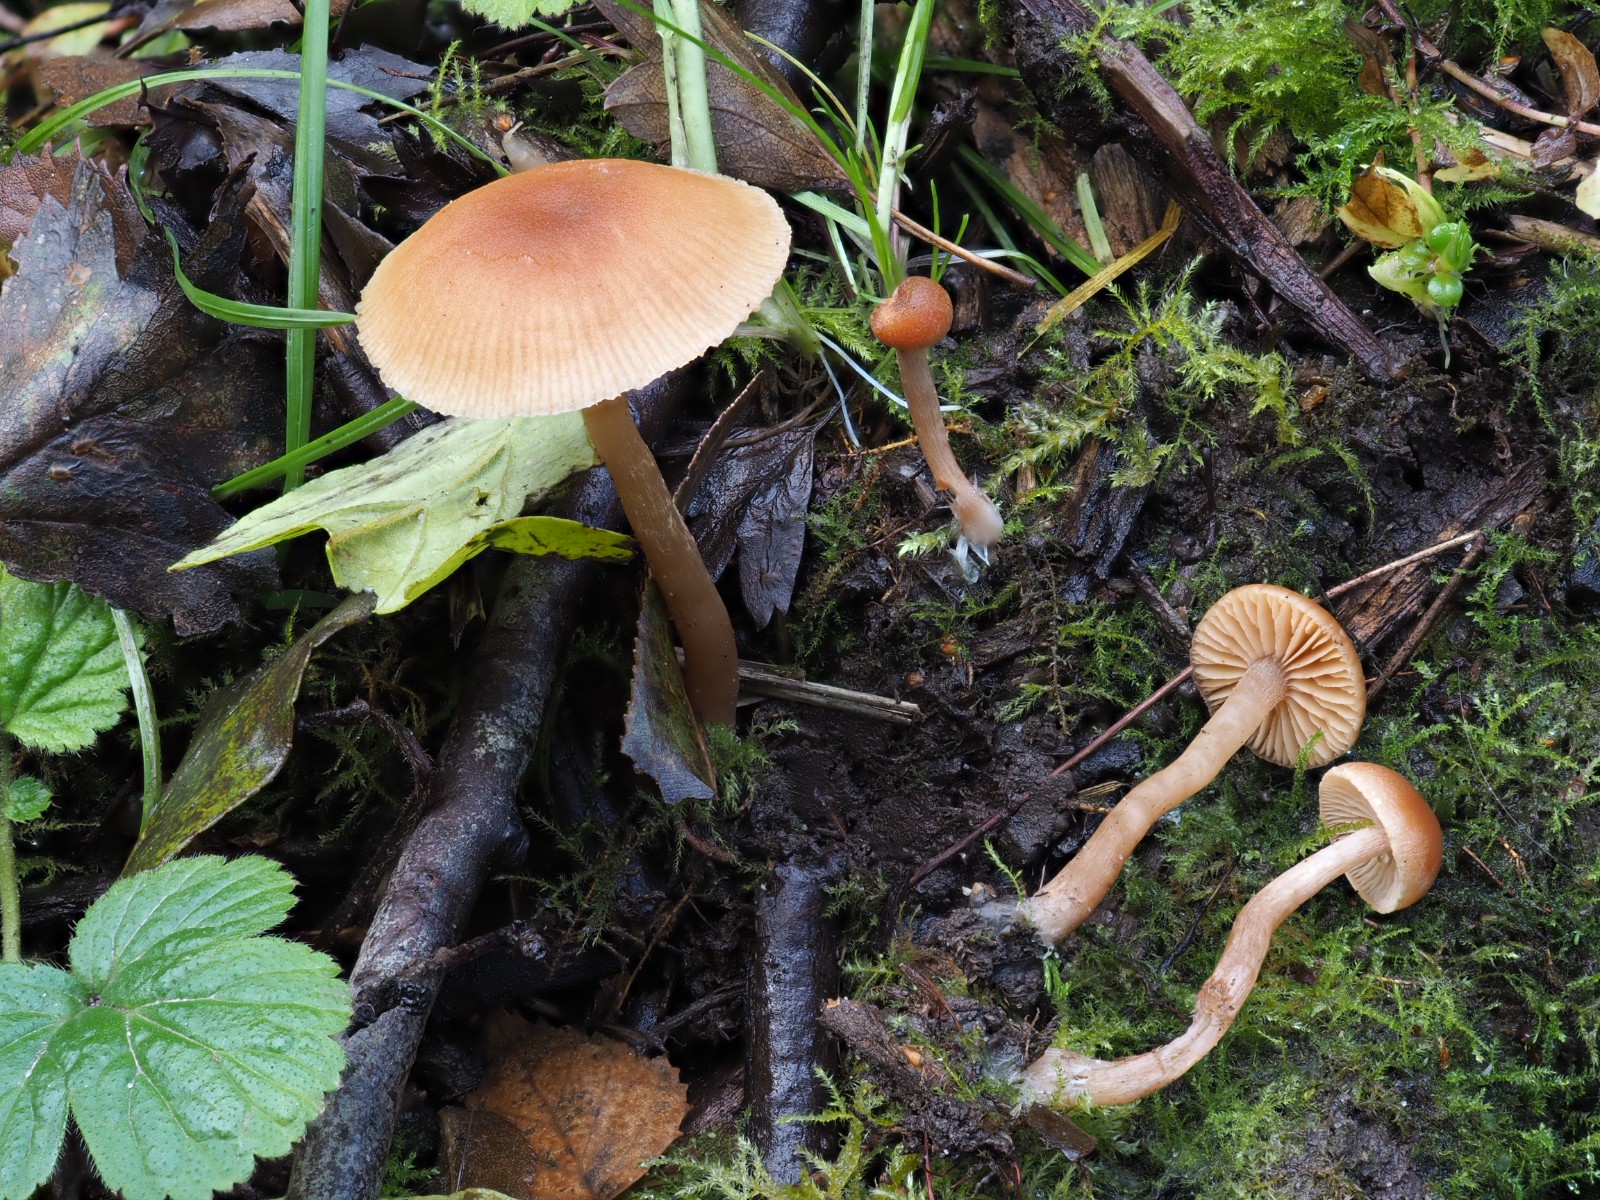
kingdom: Fungi
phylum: Basidiomycota
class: Agaricomycetes
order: Agaricales
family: Tubariaceae
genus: Tubaria
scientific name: Tubaria furfuracea
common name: kliddet fnughat
